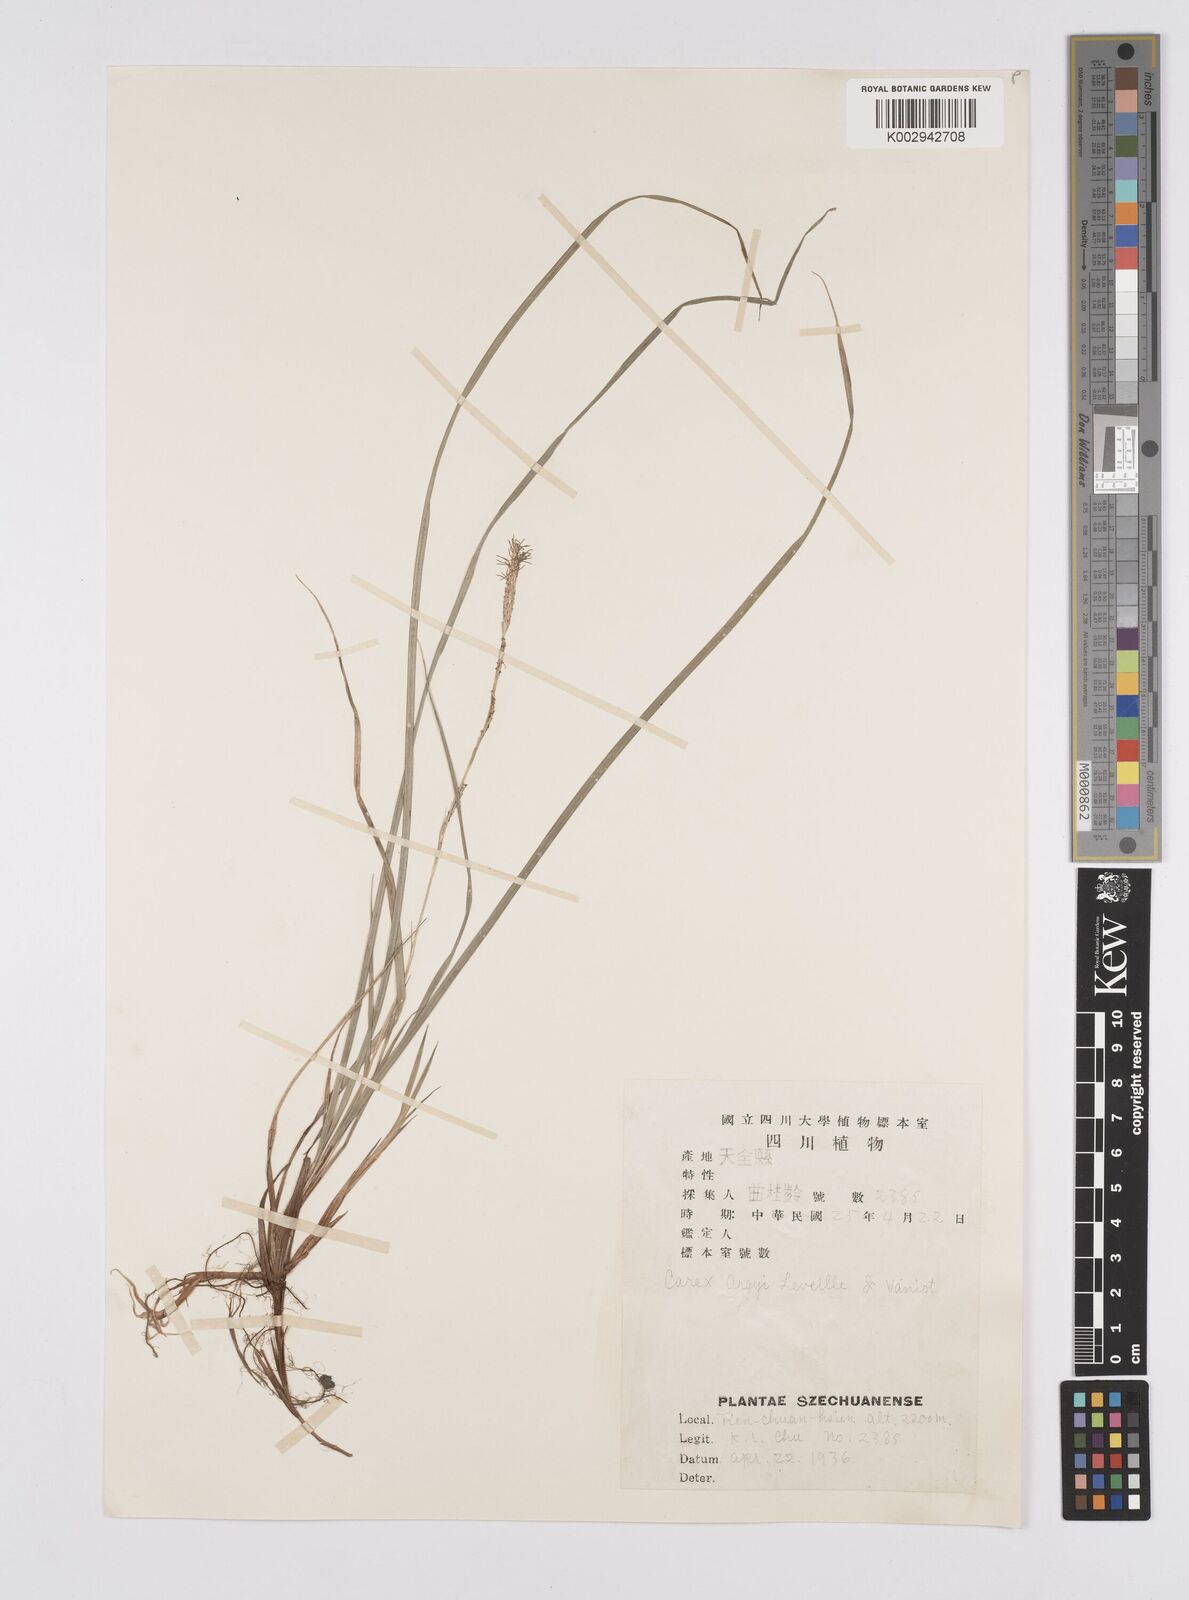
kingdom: Plantae
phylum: Tracheophyta
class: Liliopsida
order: Poales
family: Cyperaceae
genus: Carex
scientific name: Carex argyi
